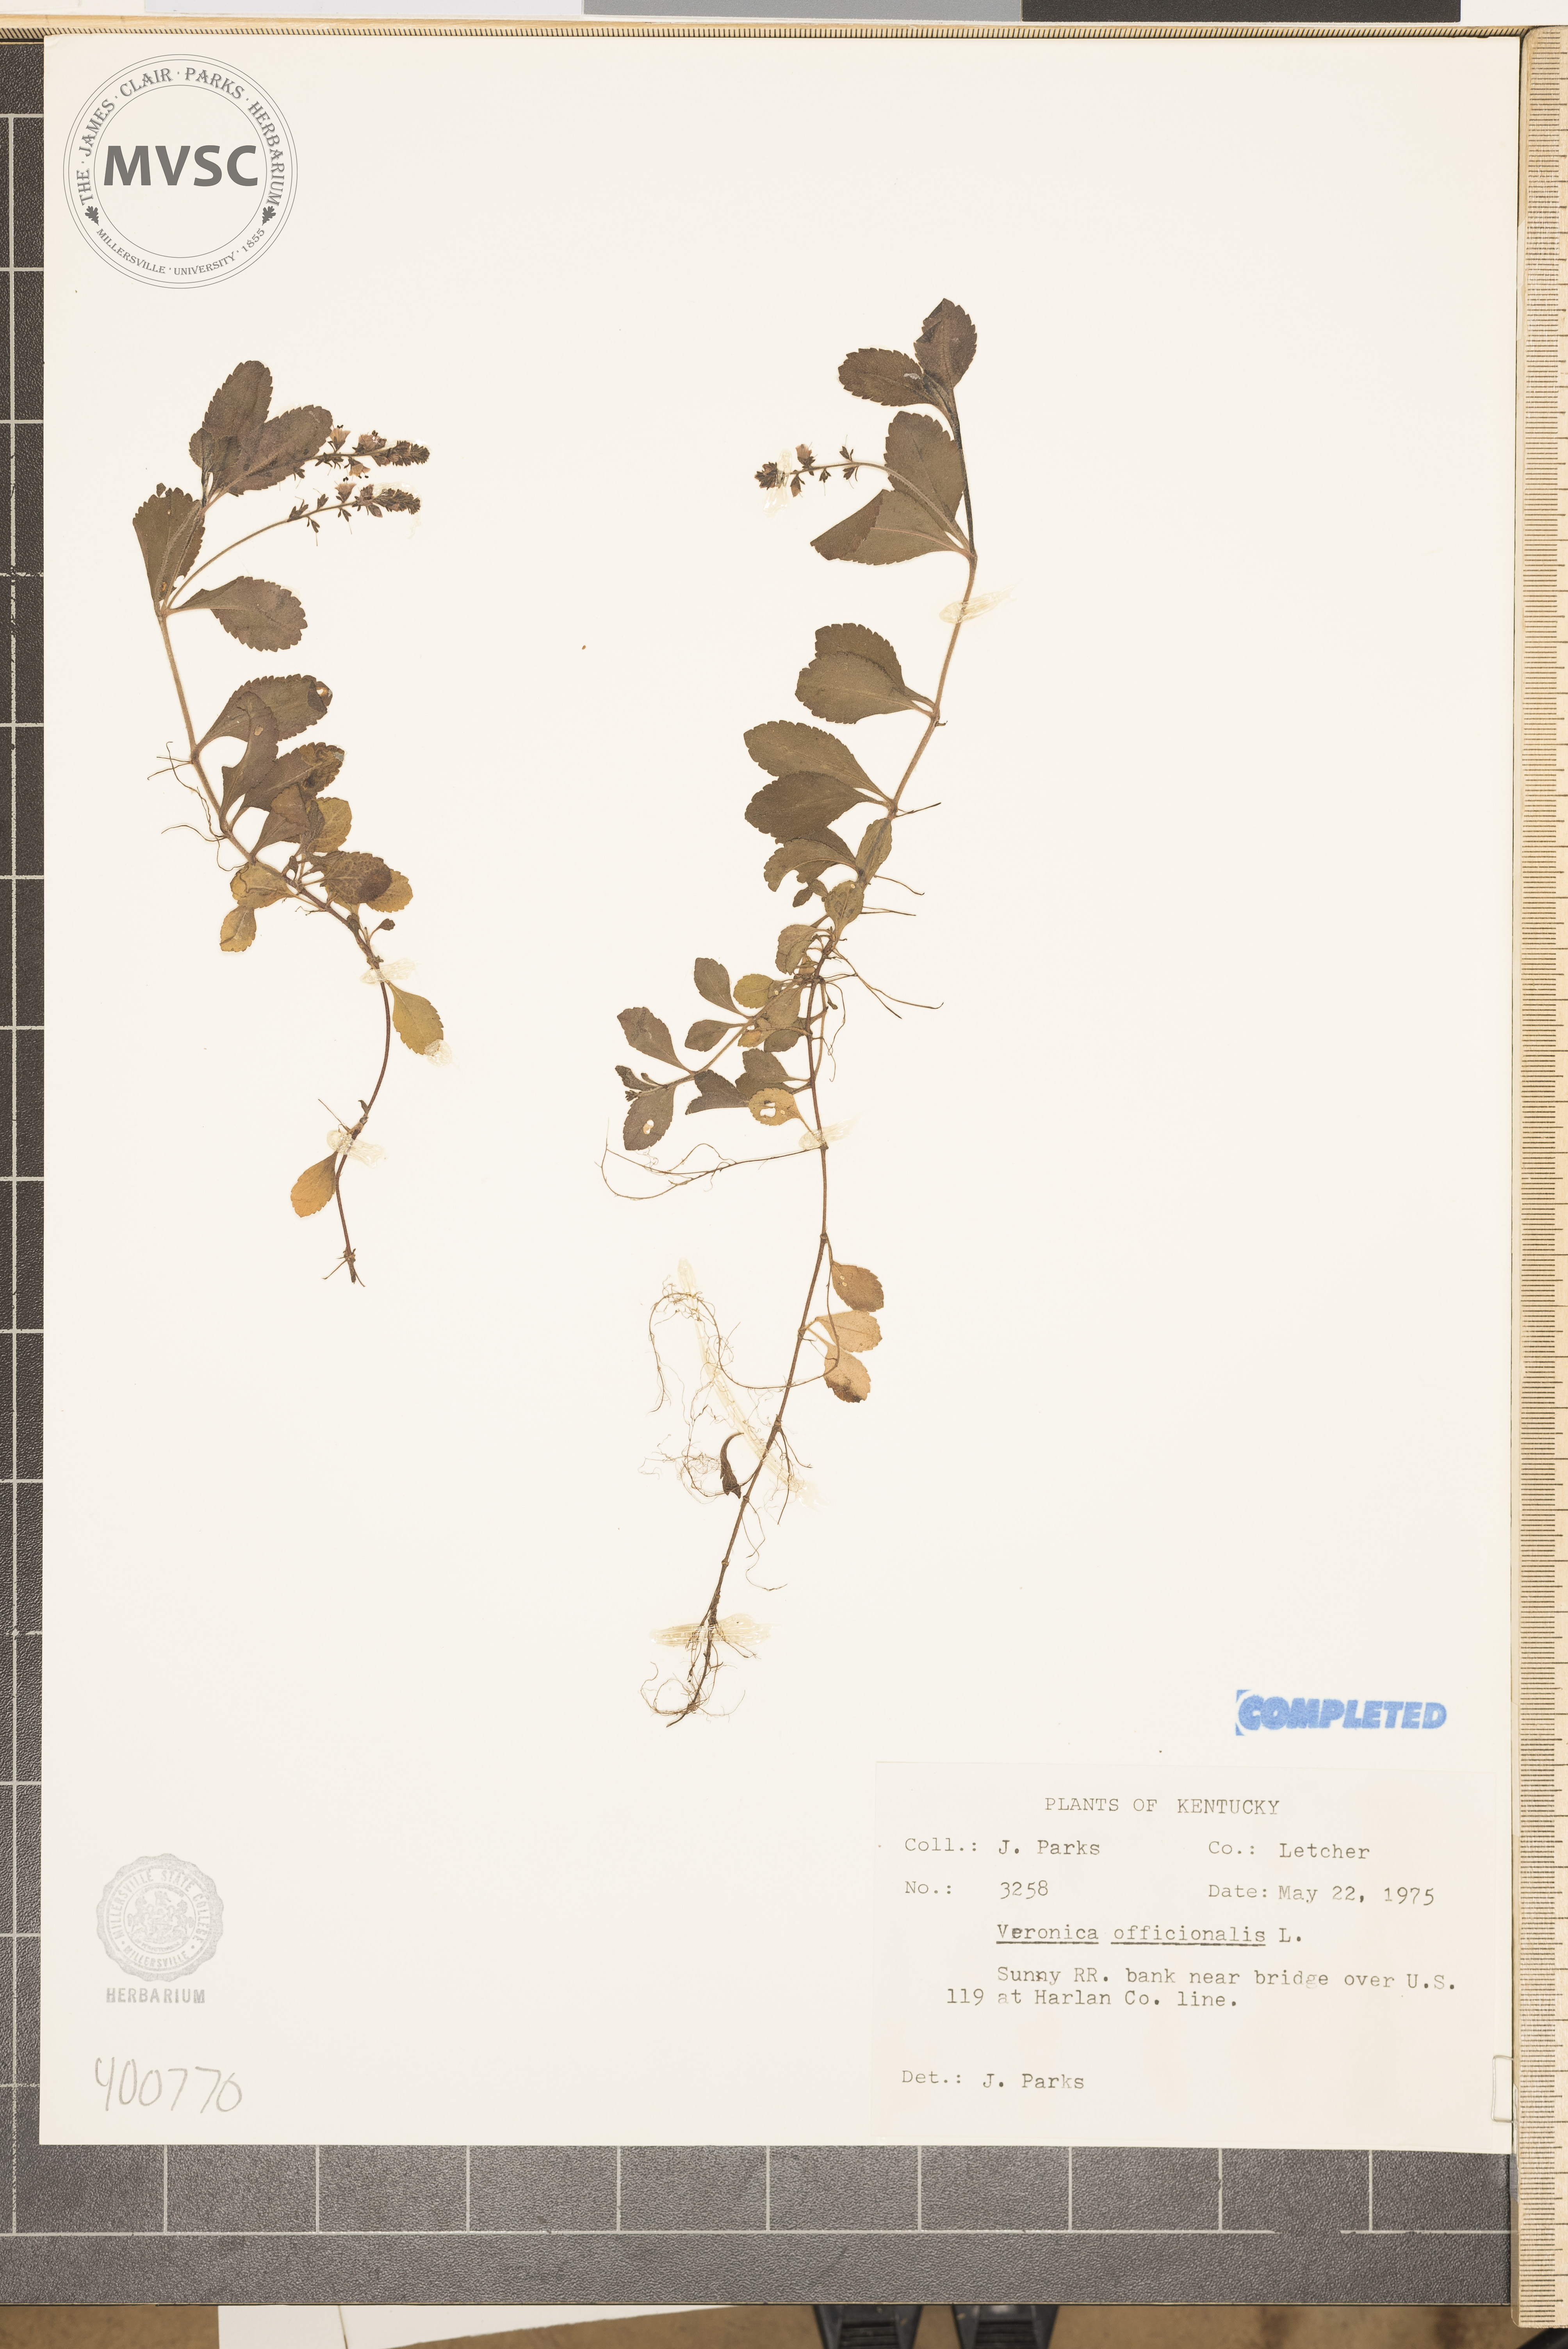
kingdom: Plantae
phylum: Tracheophyta
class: Magnoliopsida
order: Lamiales
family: Plantaginaceae
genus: Veronica
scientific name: Veronica officinalis
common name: speedwell
